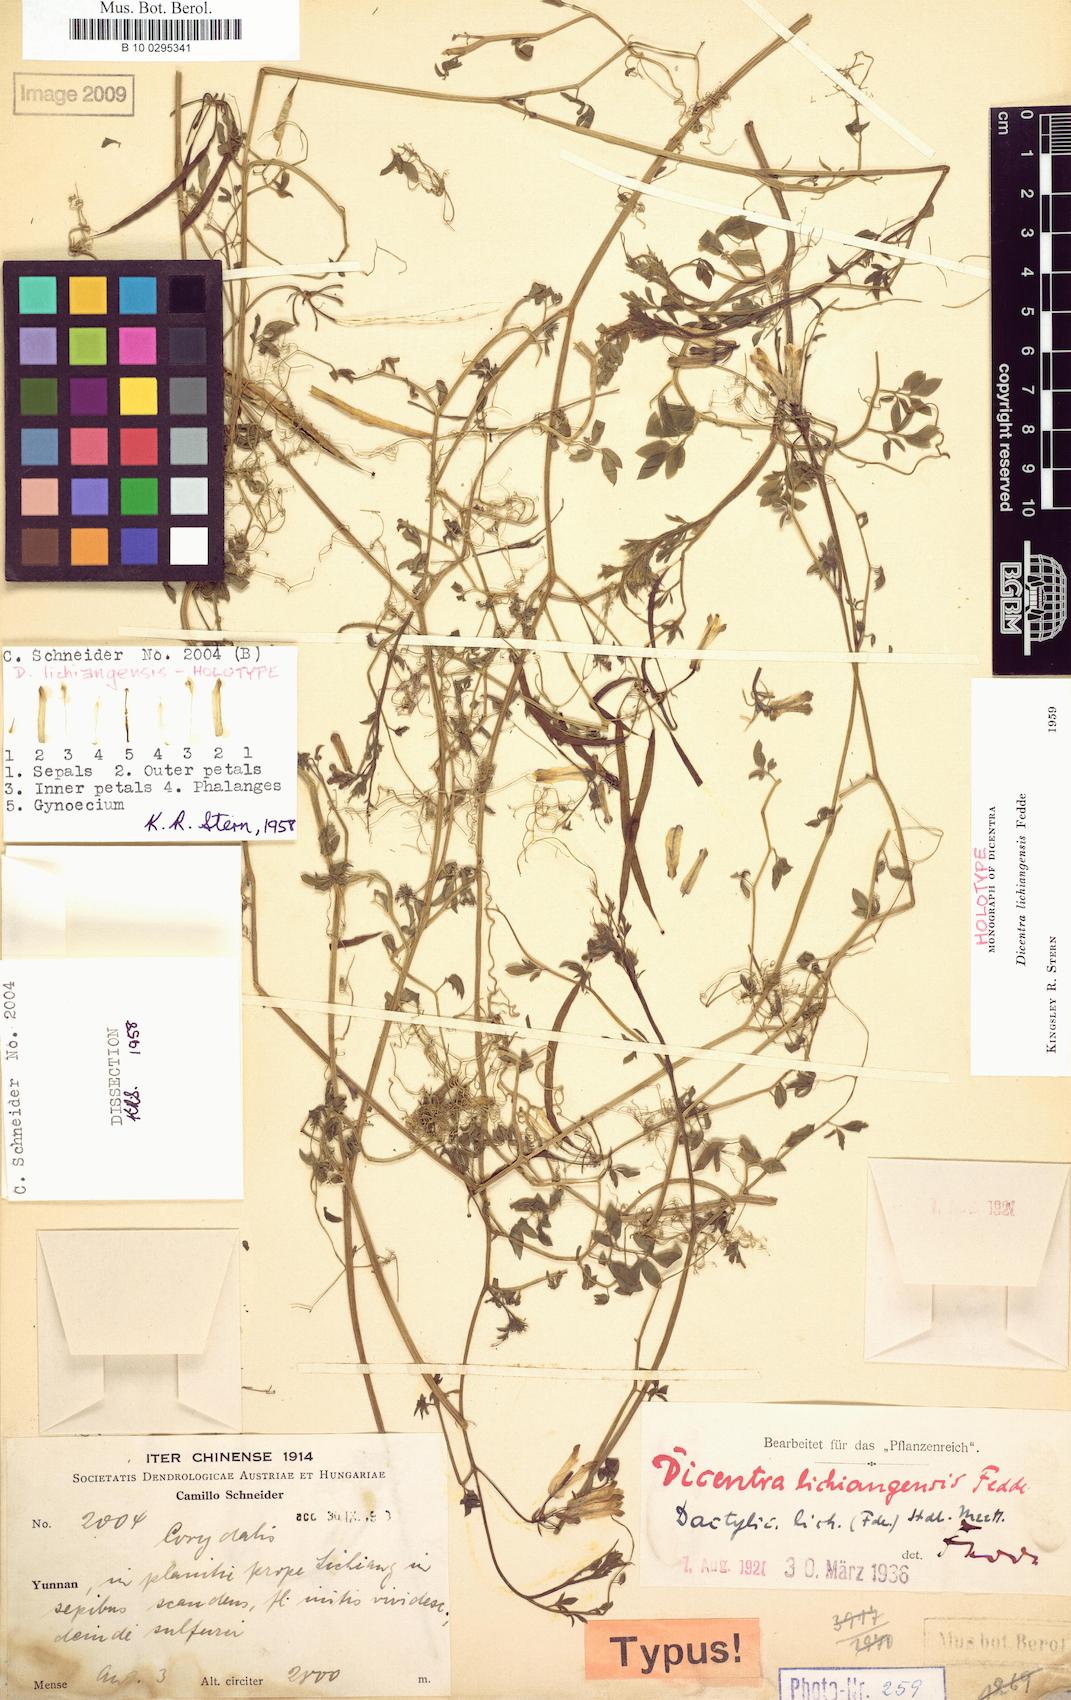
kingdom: Plantae
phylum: Tracheophyta
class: Magnoliopsida
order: Ranunculales
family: Papaveraceae
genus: Dactylicapnos
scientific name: Dactylicapnos lichiangensis
